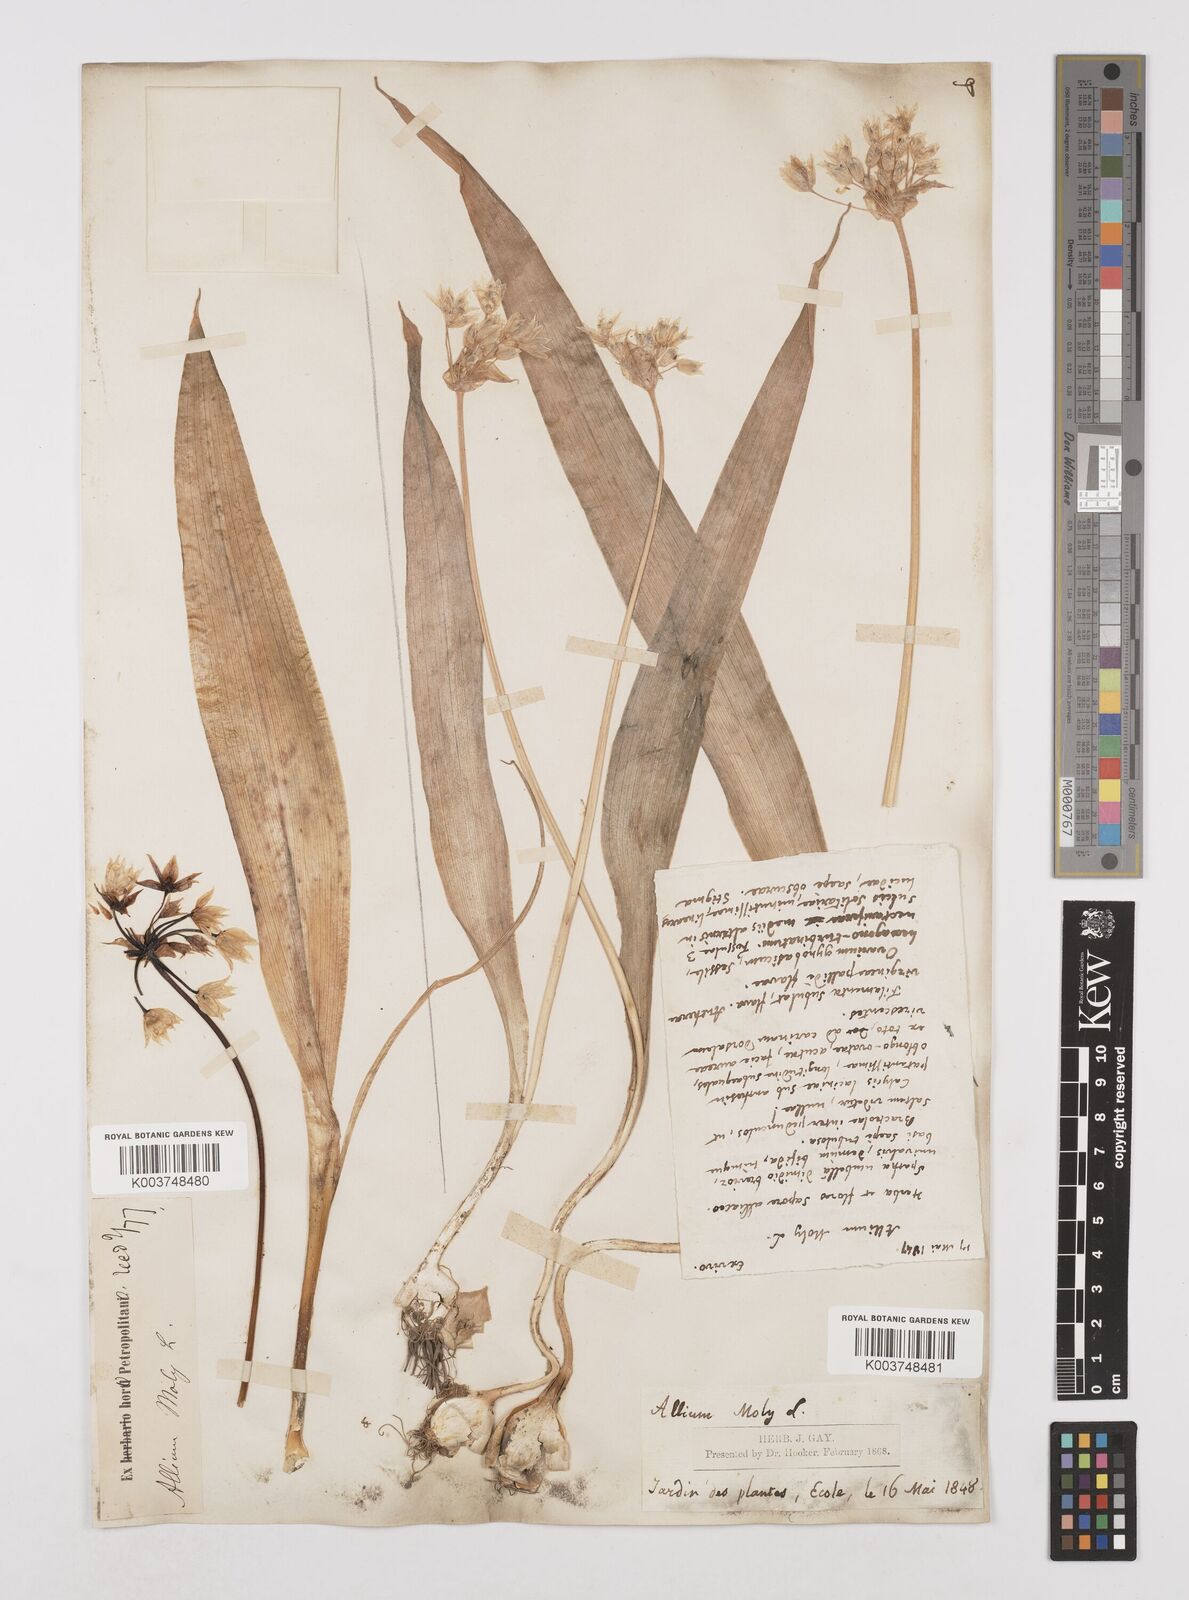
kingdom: Plantae
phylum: Tracheophyta
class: Liliopsida
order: Asparagales
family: Amaryllidaceae
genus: Allium
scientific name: Allium moly
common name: Yellow garlic
